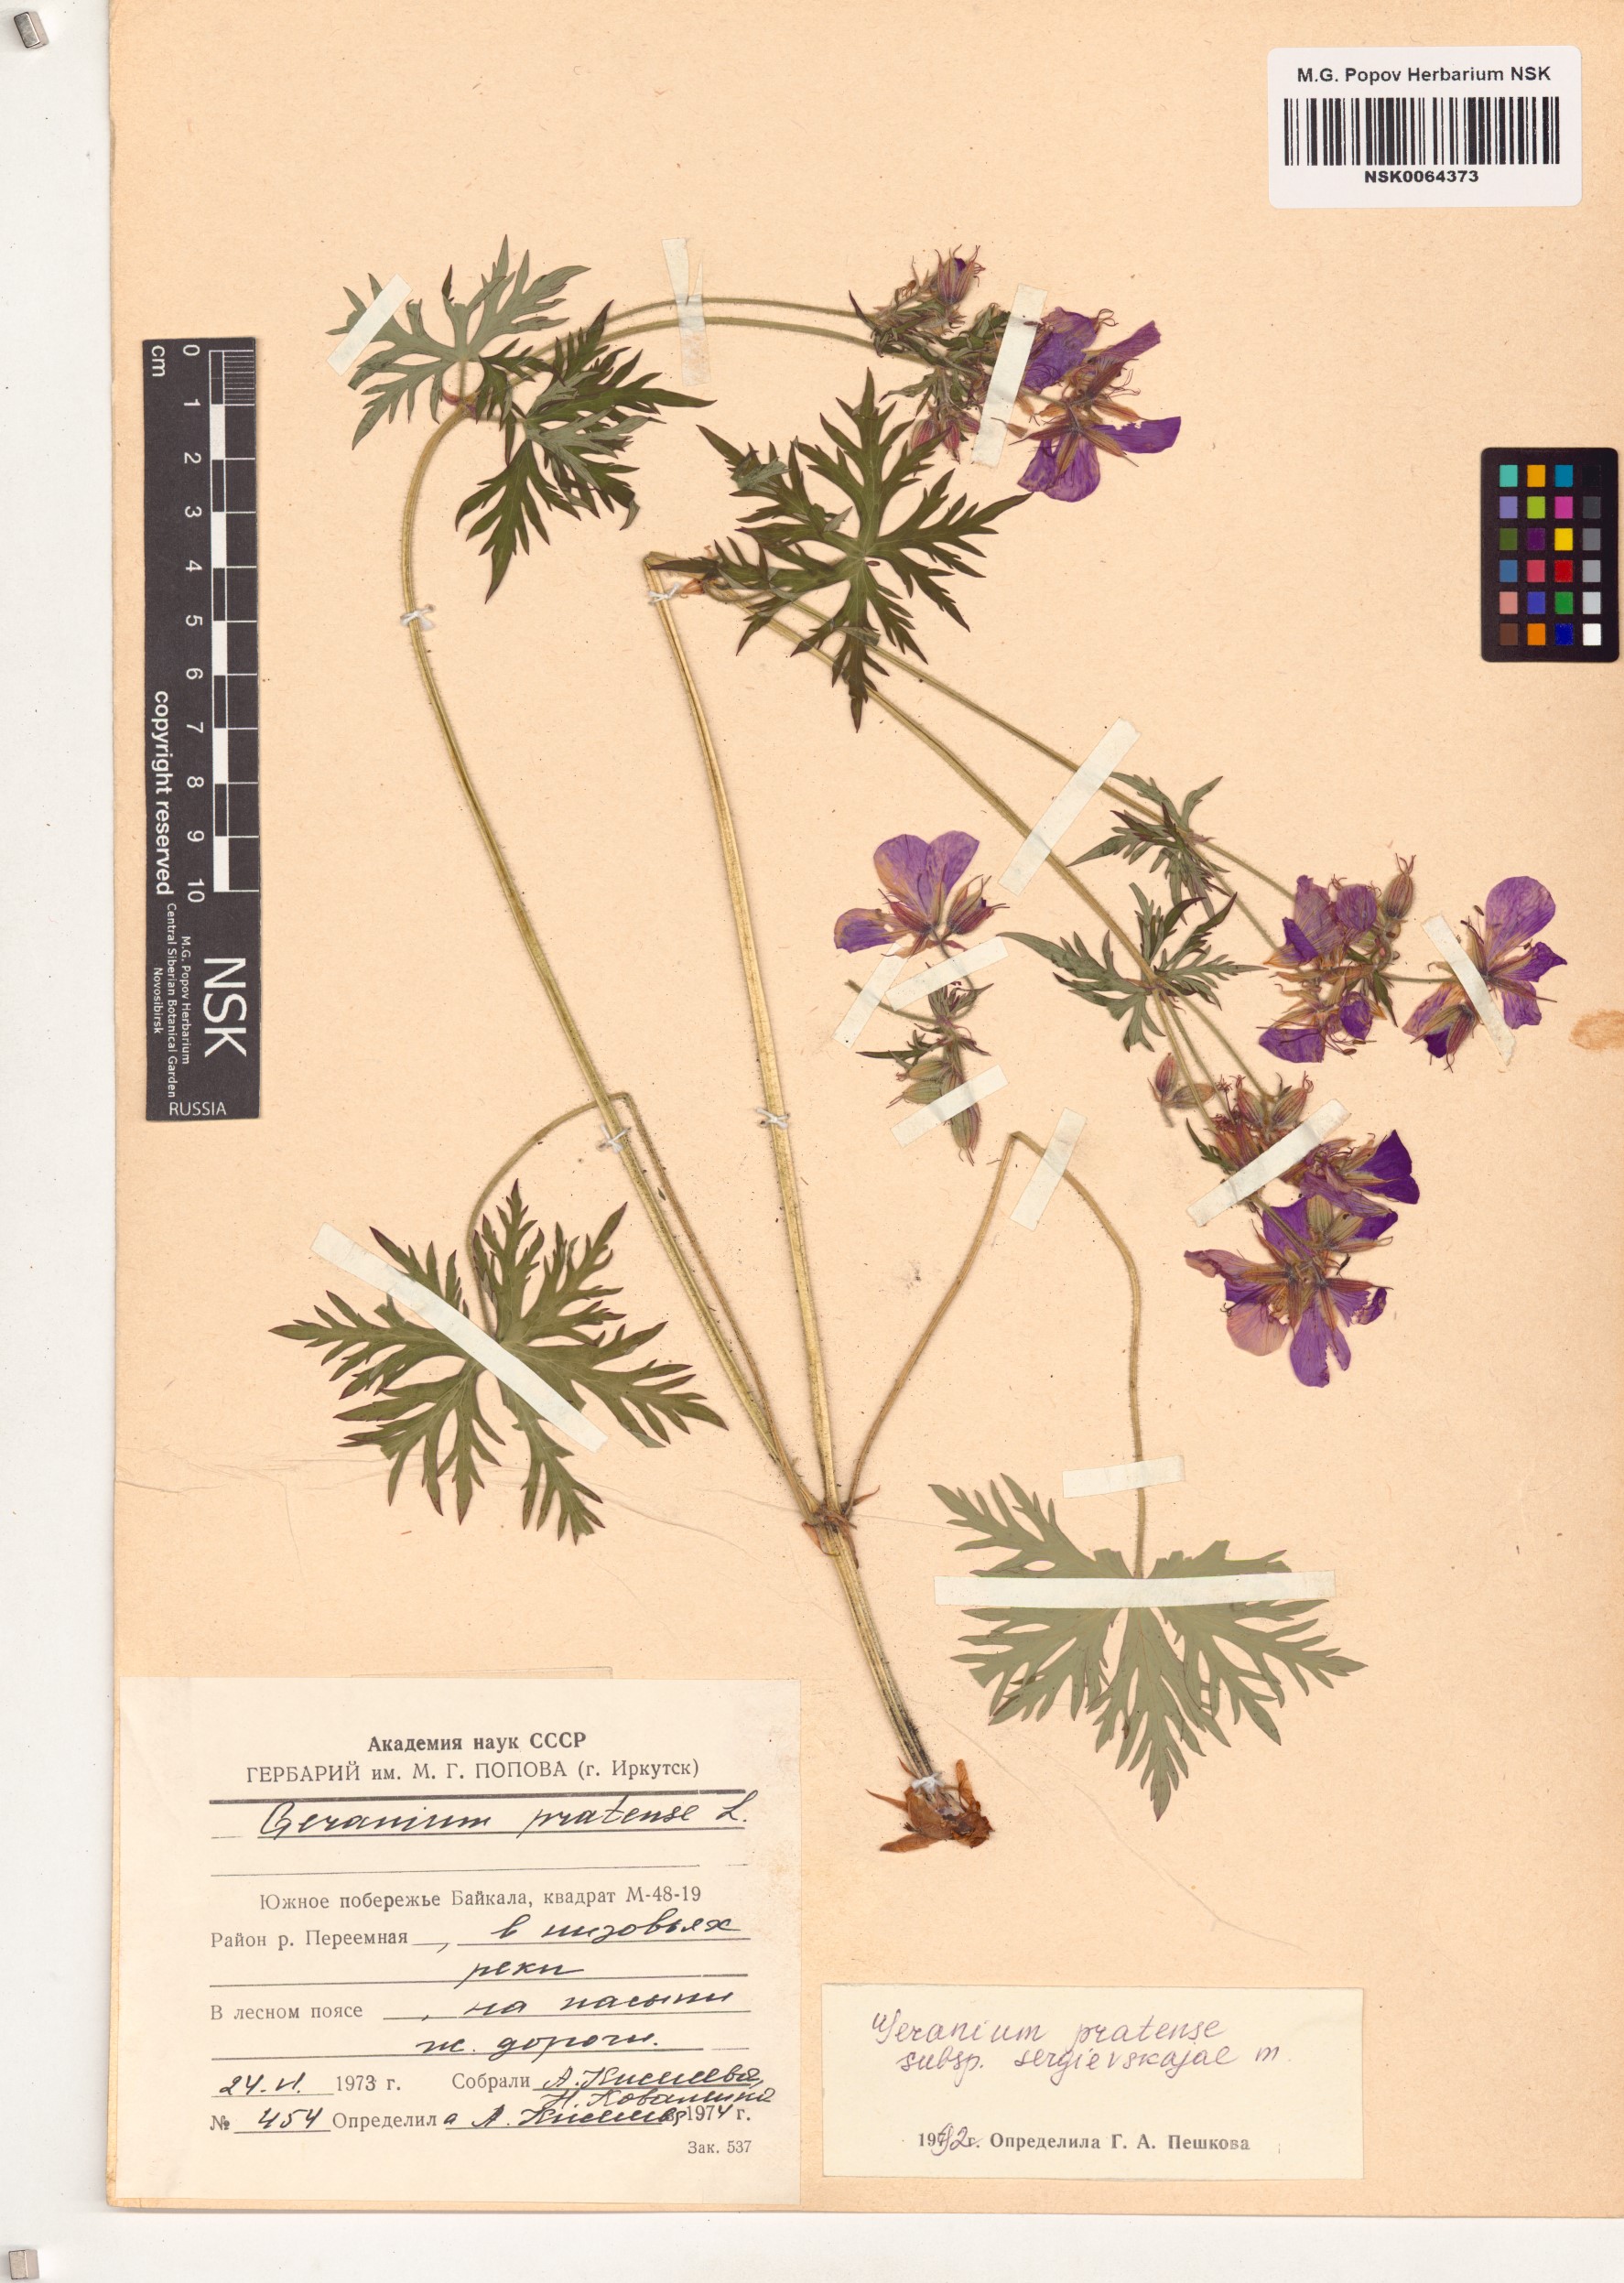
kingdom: Plantae
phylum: Tracheophyta
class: Magnoliopsida
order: Geraniales
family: Geraniaceae
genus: Geranium
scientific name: Geranium pratense
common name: Meadow crane's-bill
